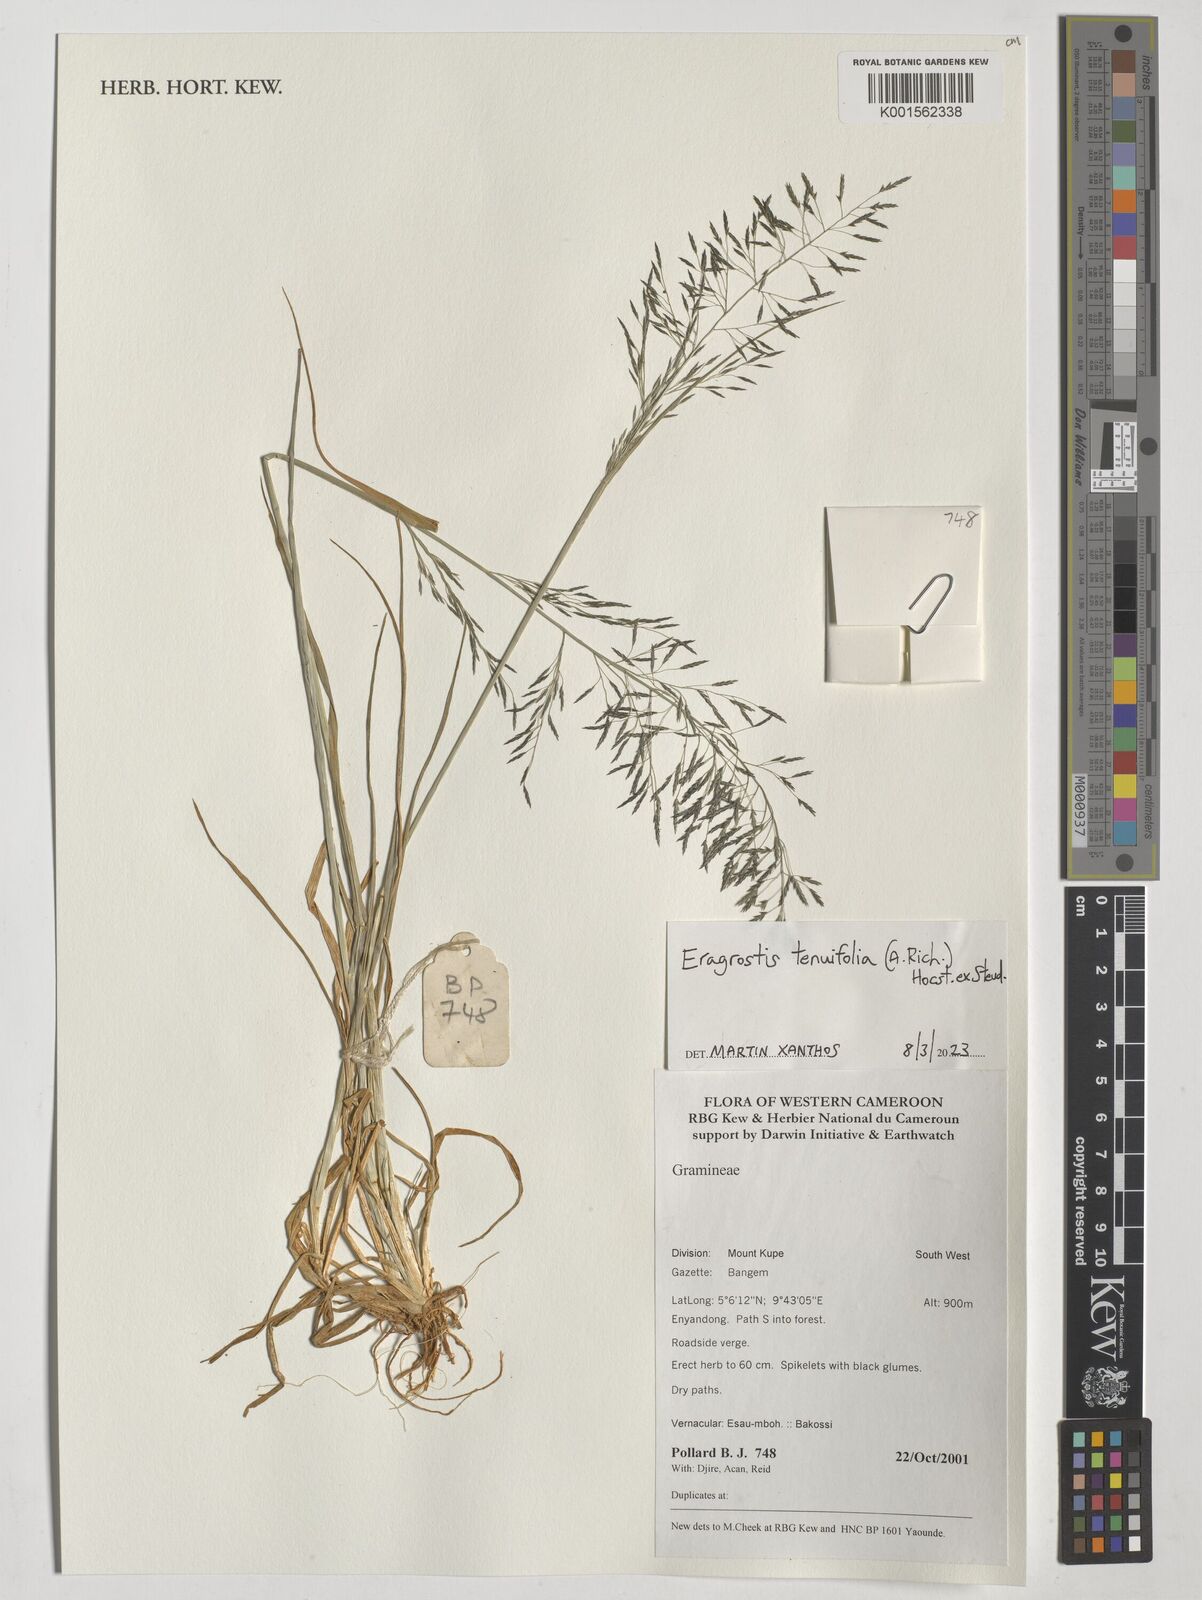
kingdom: Plantae
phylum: Tracheophyta
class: Liliopsida
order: Poales
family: Poaceae
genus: Eragrostis
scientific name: Eragrostis tenuifolia
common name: Elastic grass
